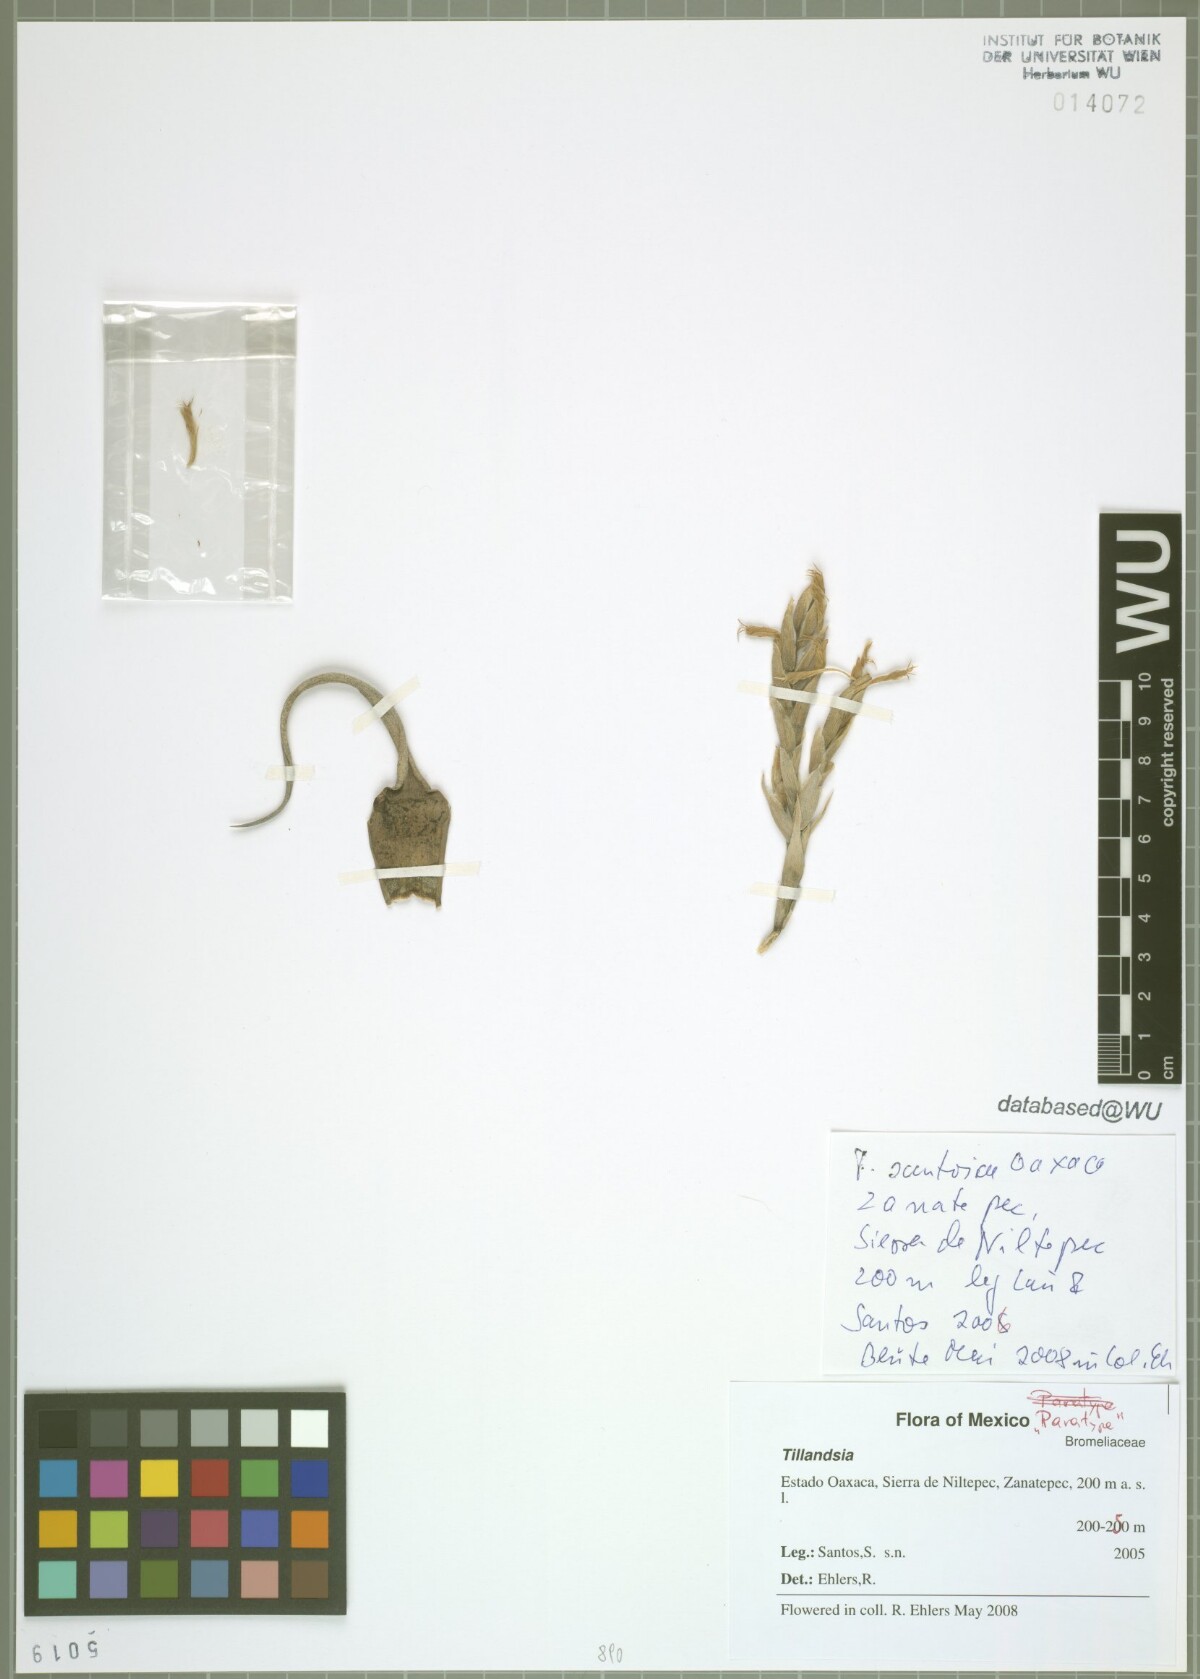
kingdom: Plantae
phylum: Tracheophyta
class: Liliopsida
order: Poales
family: Bromeliaceae
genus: Tillandsia
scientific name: Tillandsia santosiae
